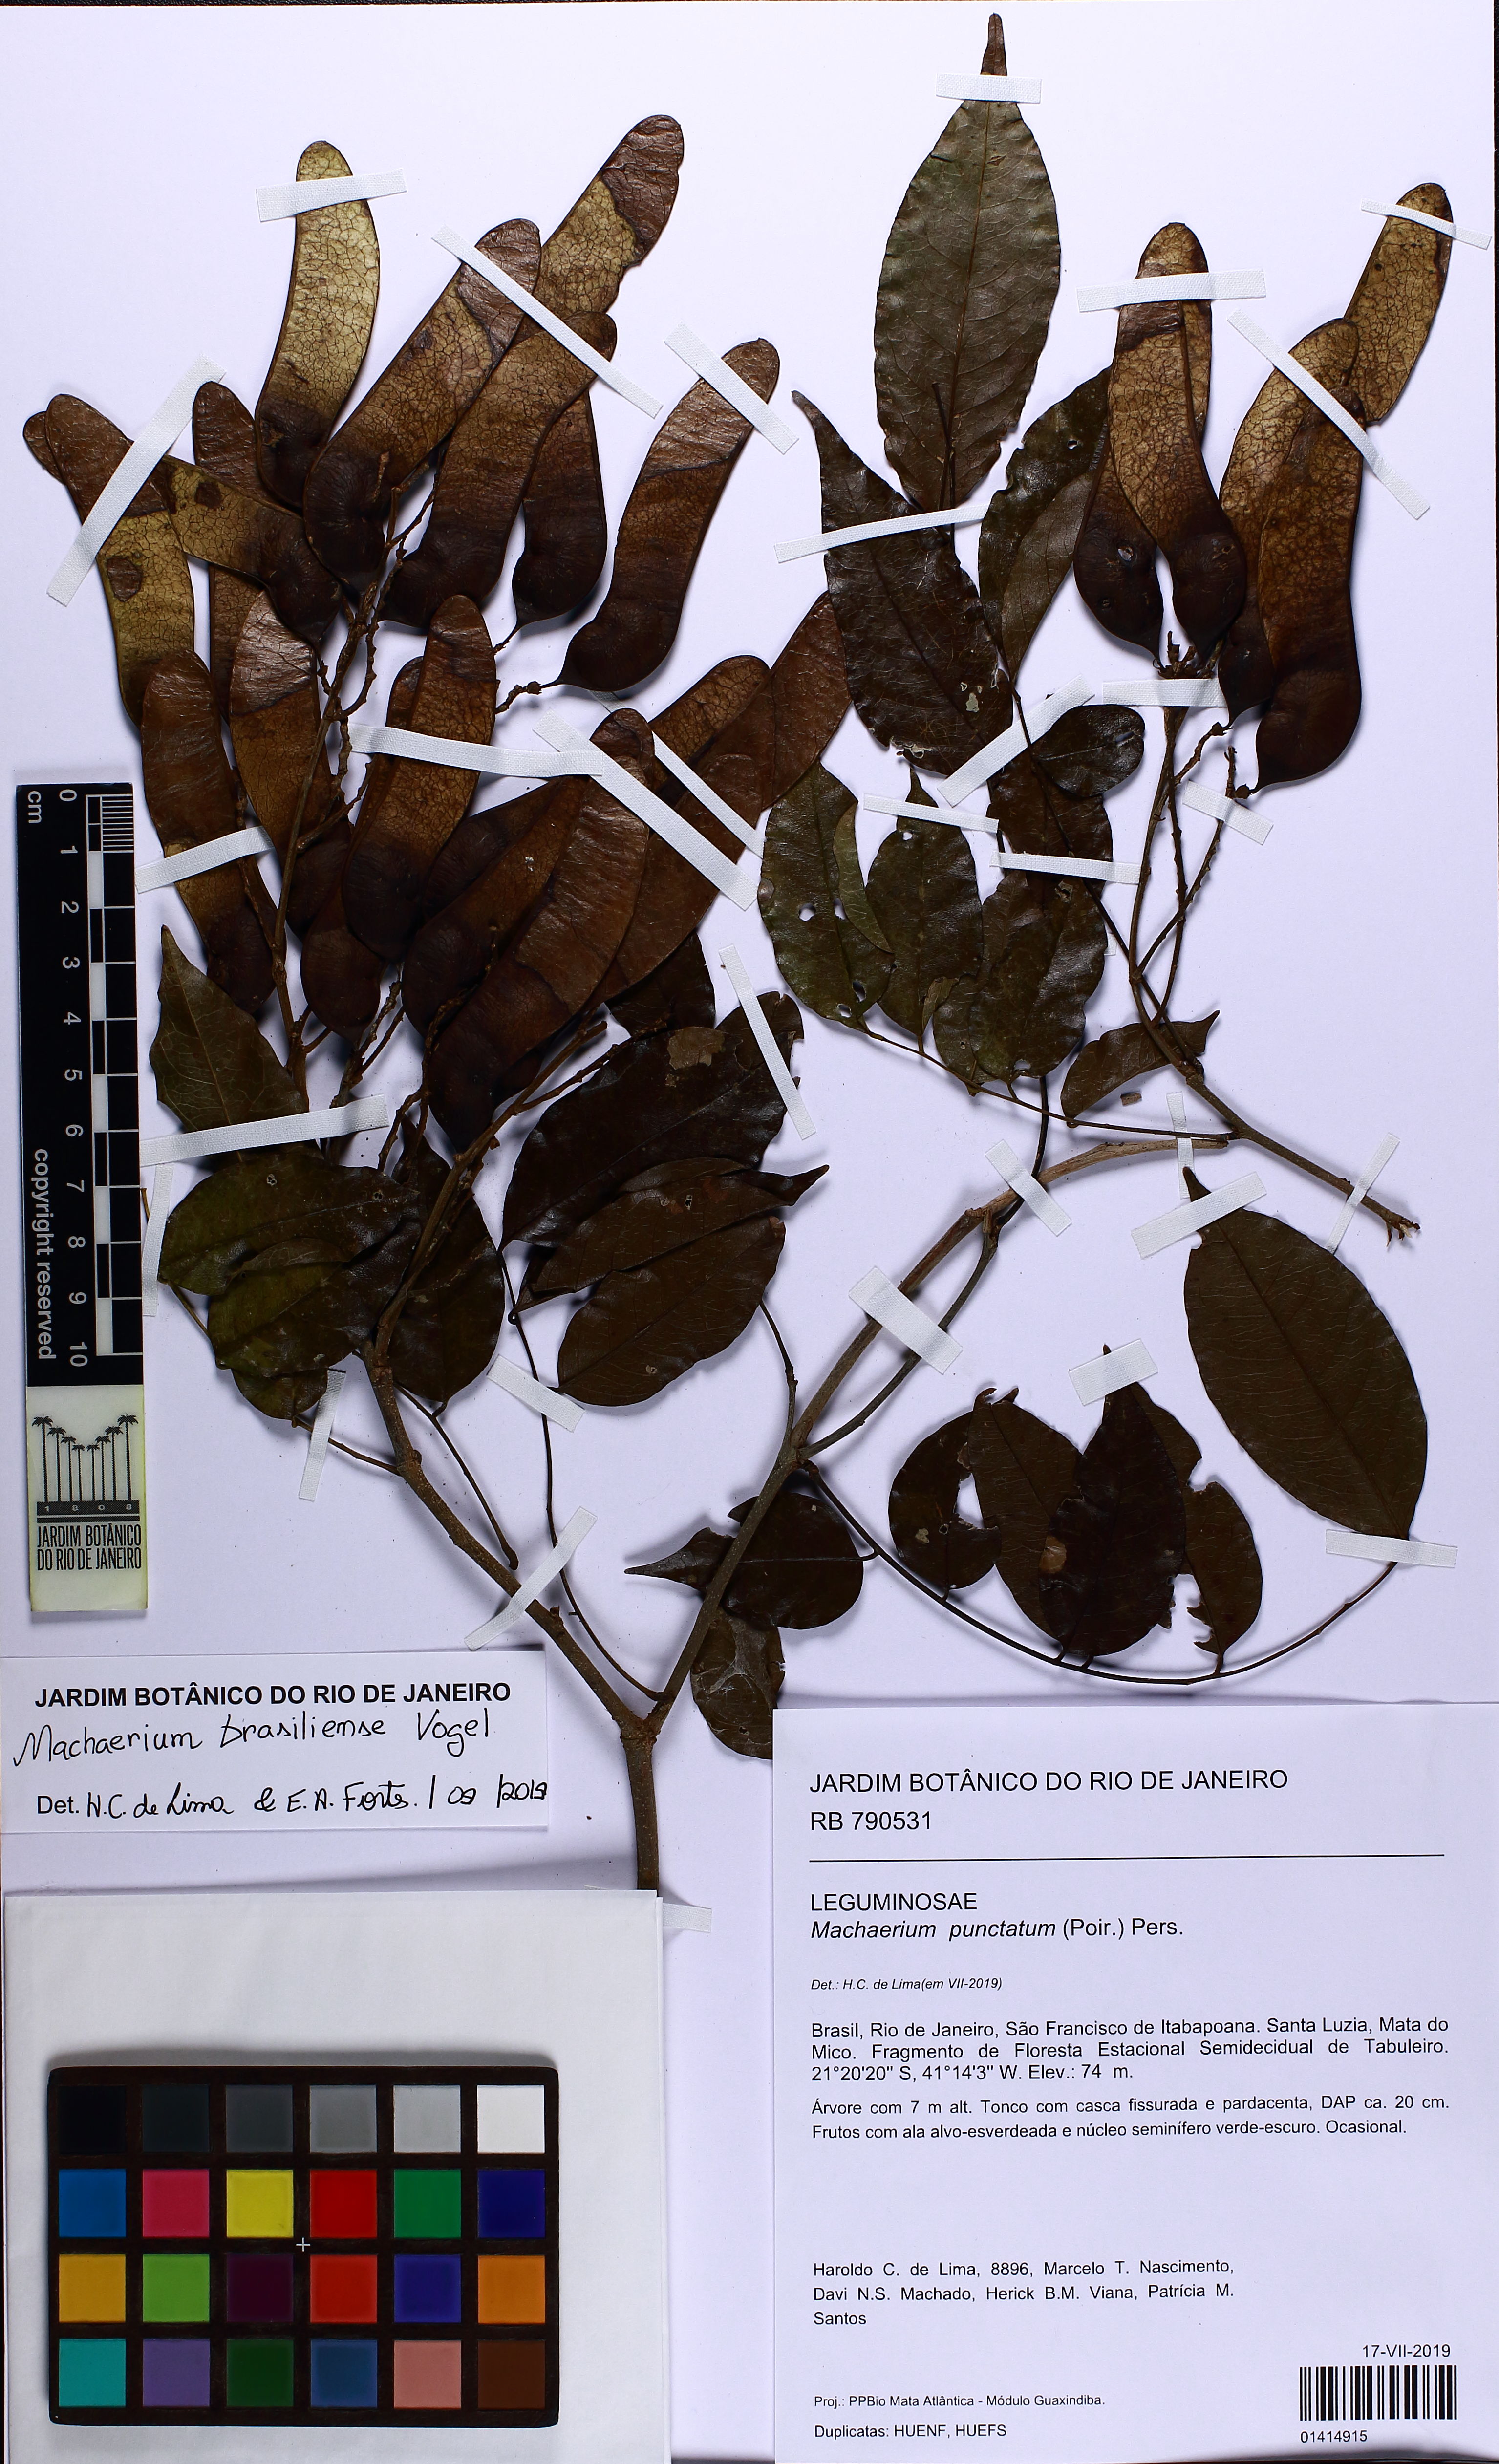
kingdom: Plantae
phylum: Tracheophyta
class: Magnoliopsida
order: Fabales
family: Fabaceae
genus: Machaerium
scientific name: Machaerium oblongifolium
